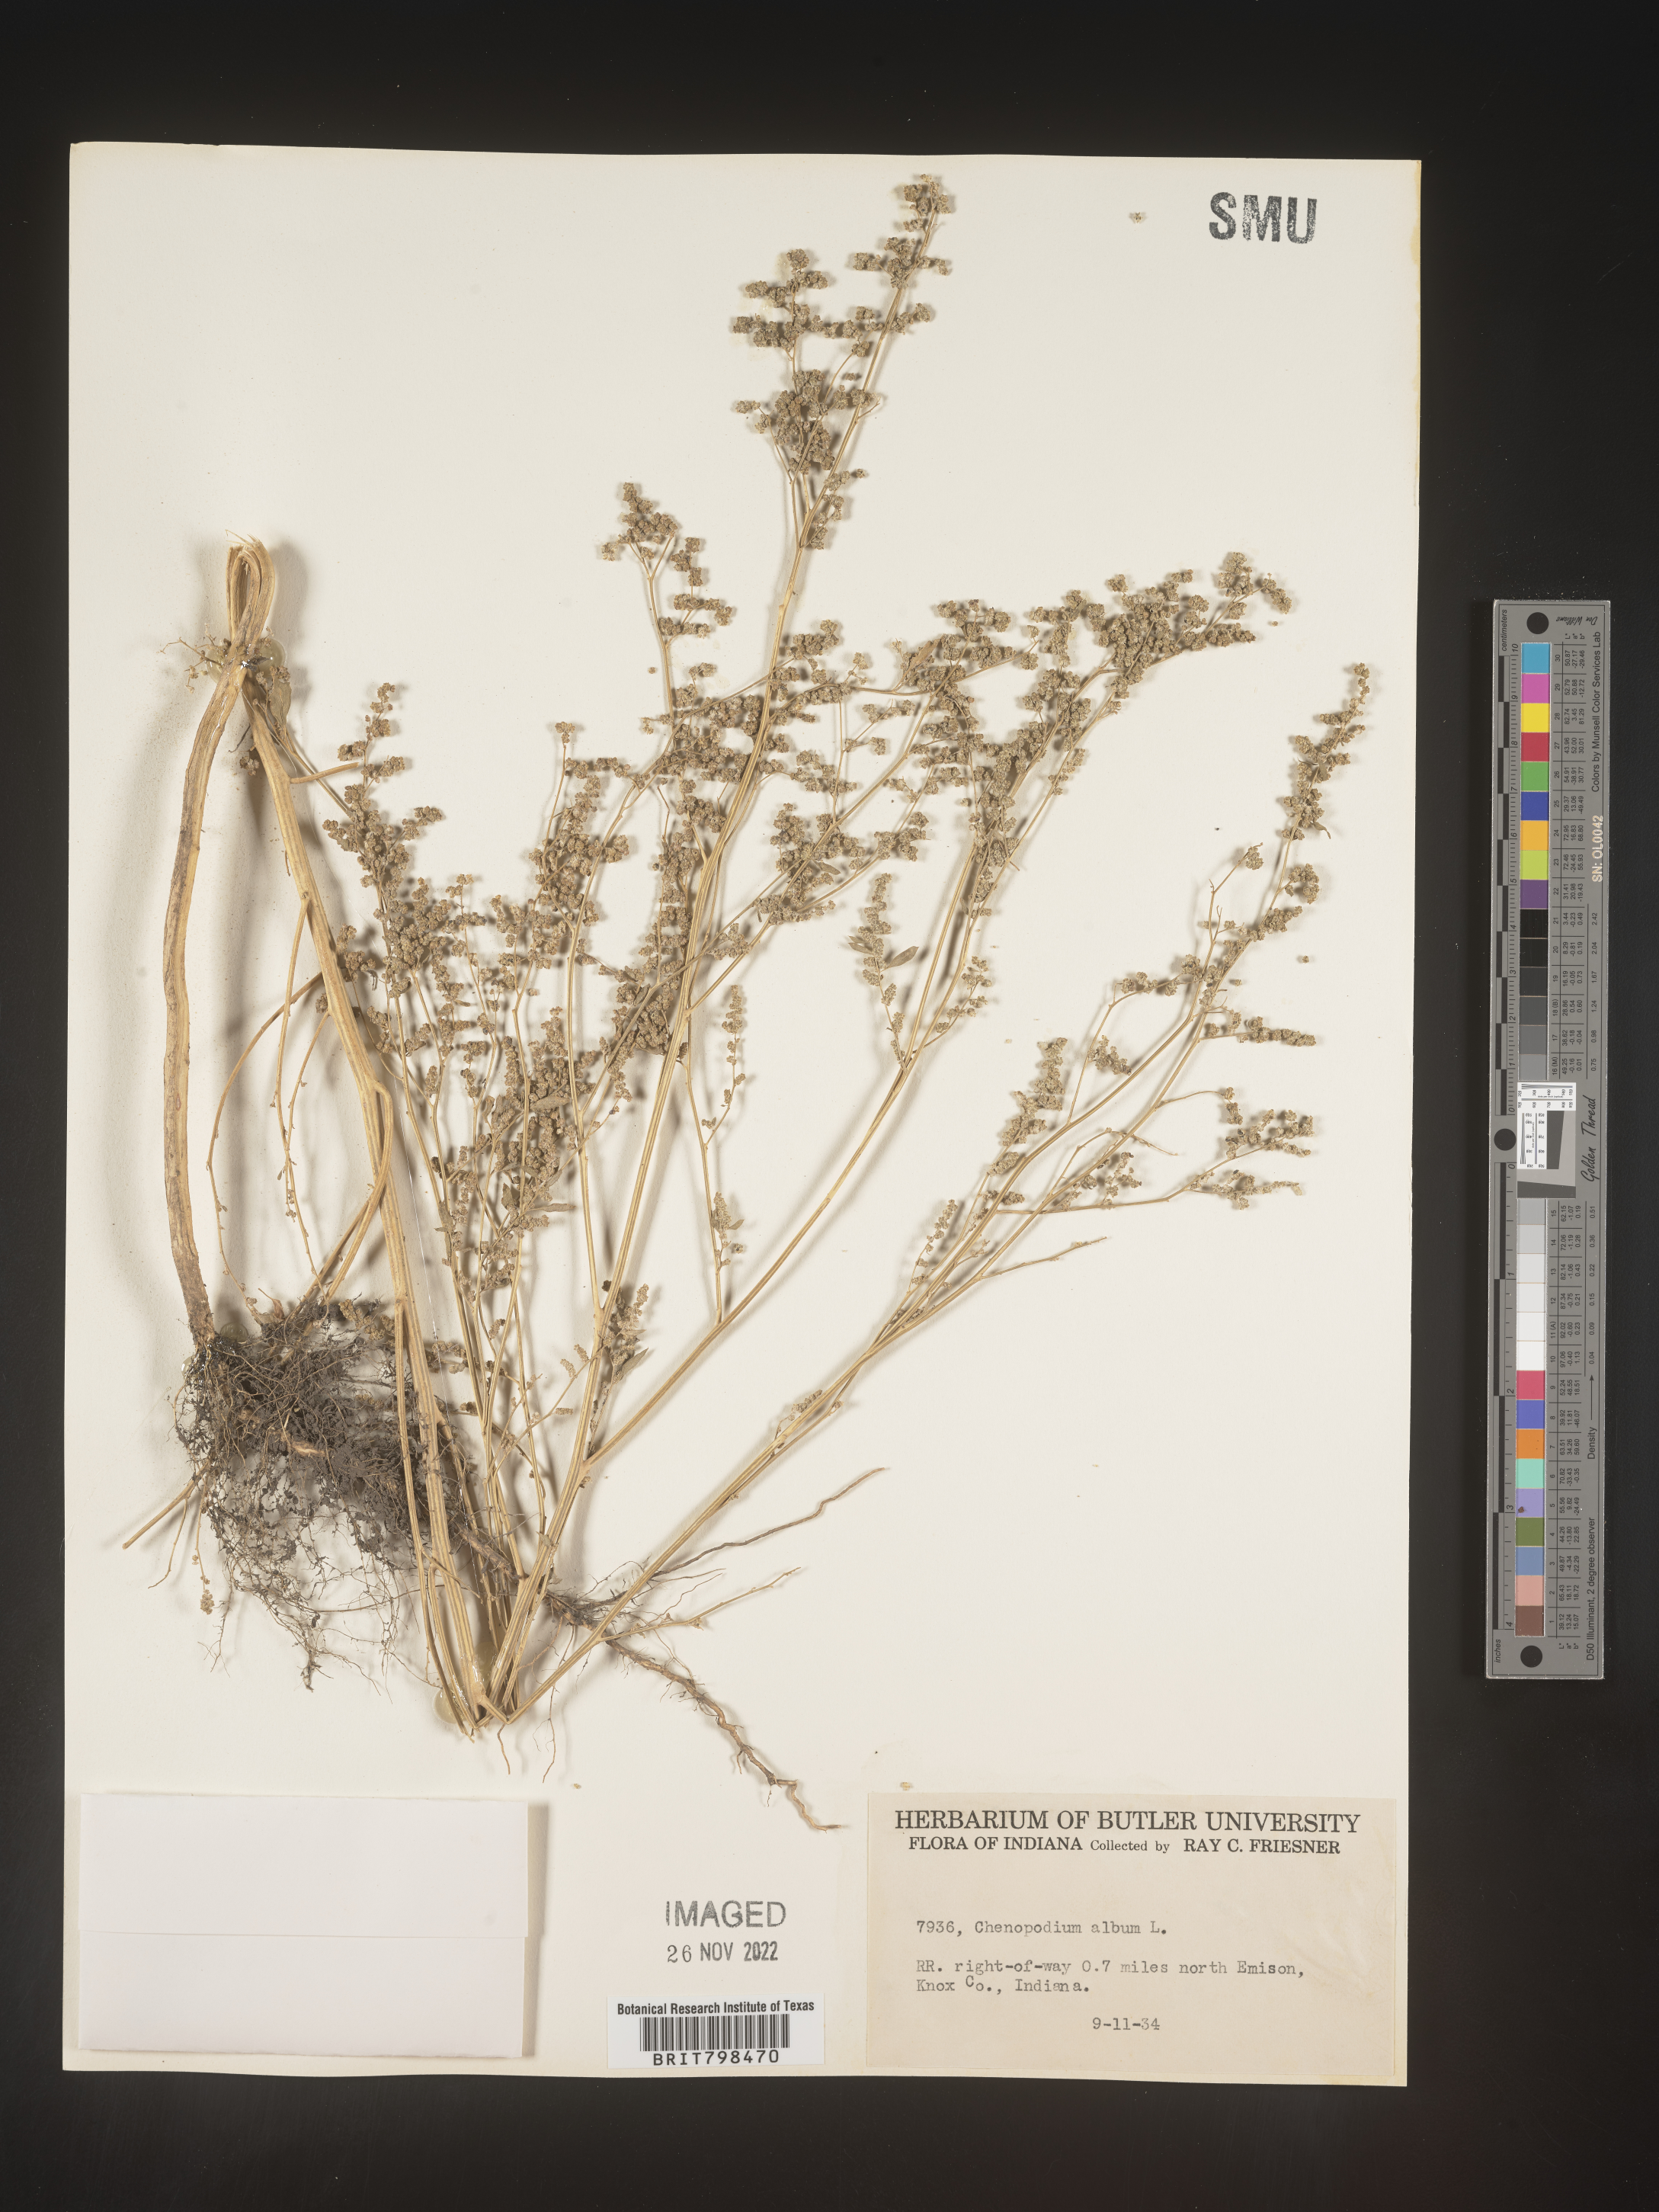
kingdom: Plantae
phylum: Tracheophyta
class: Magnoliopsida
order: Caryophyllales
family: Amaranthaceae
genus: Chenopodium
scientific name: Chenopodium album
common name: Fat-hen
